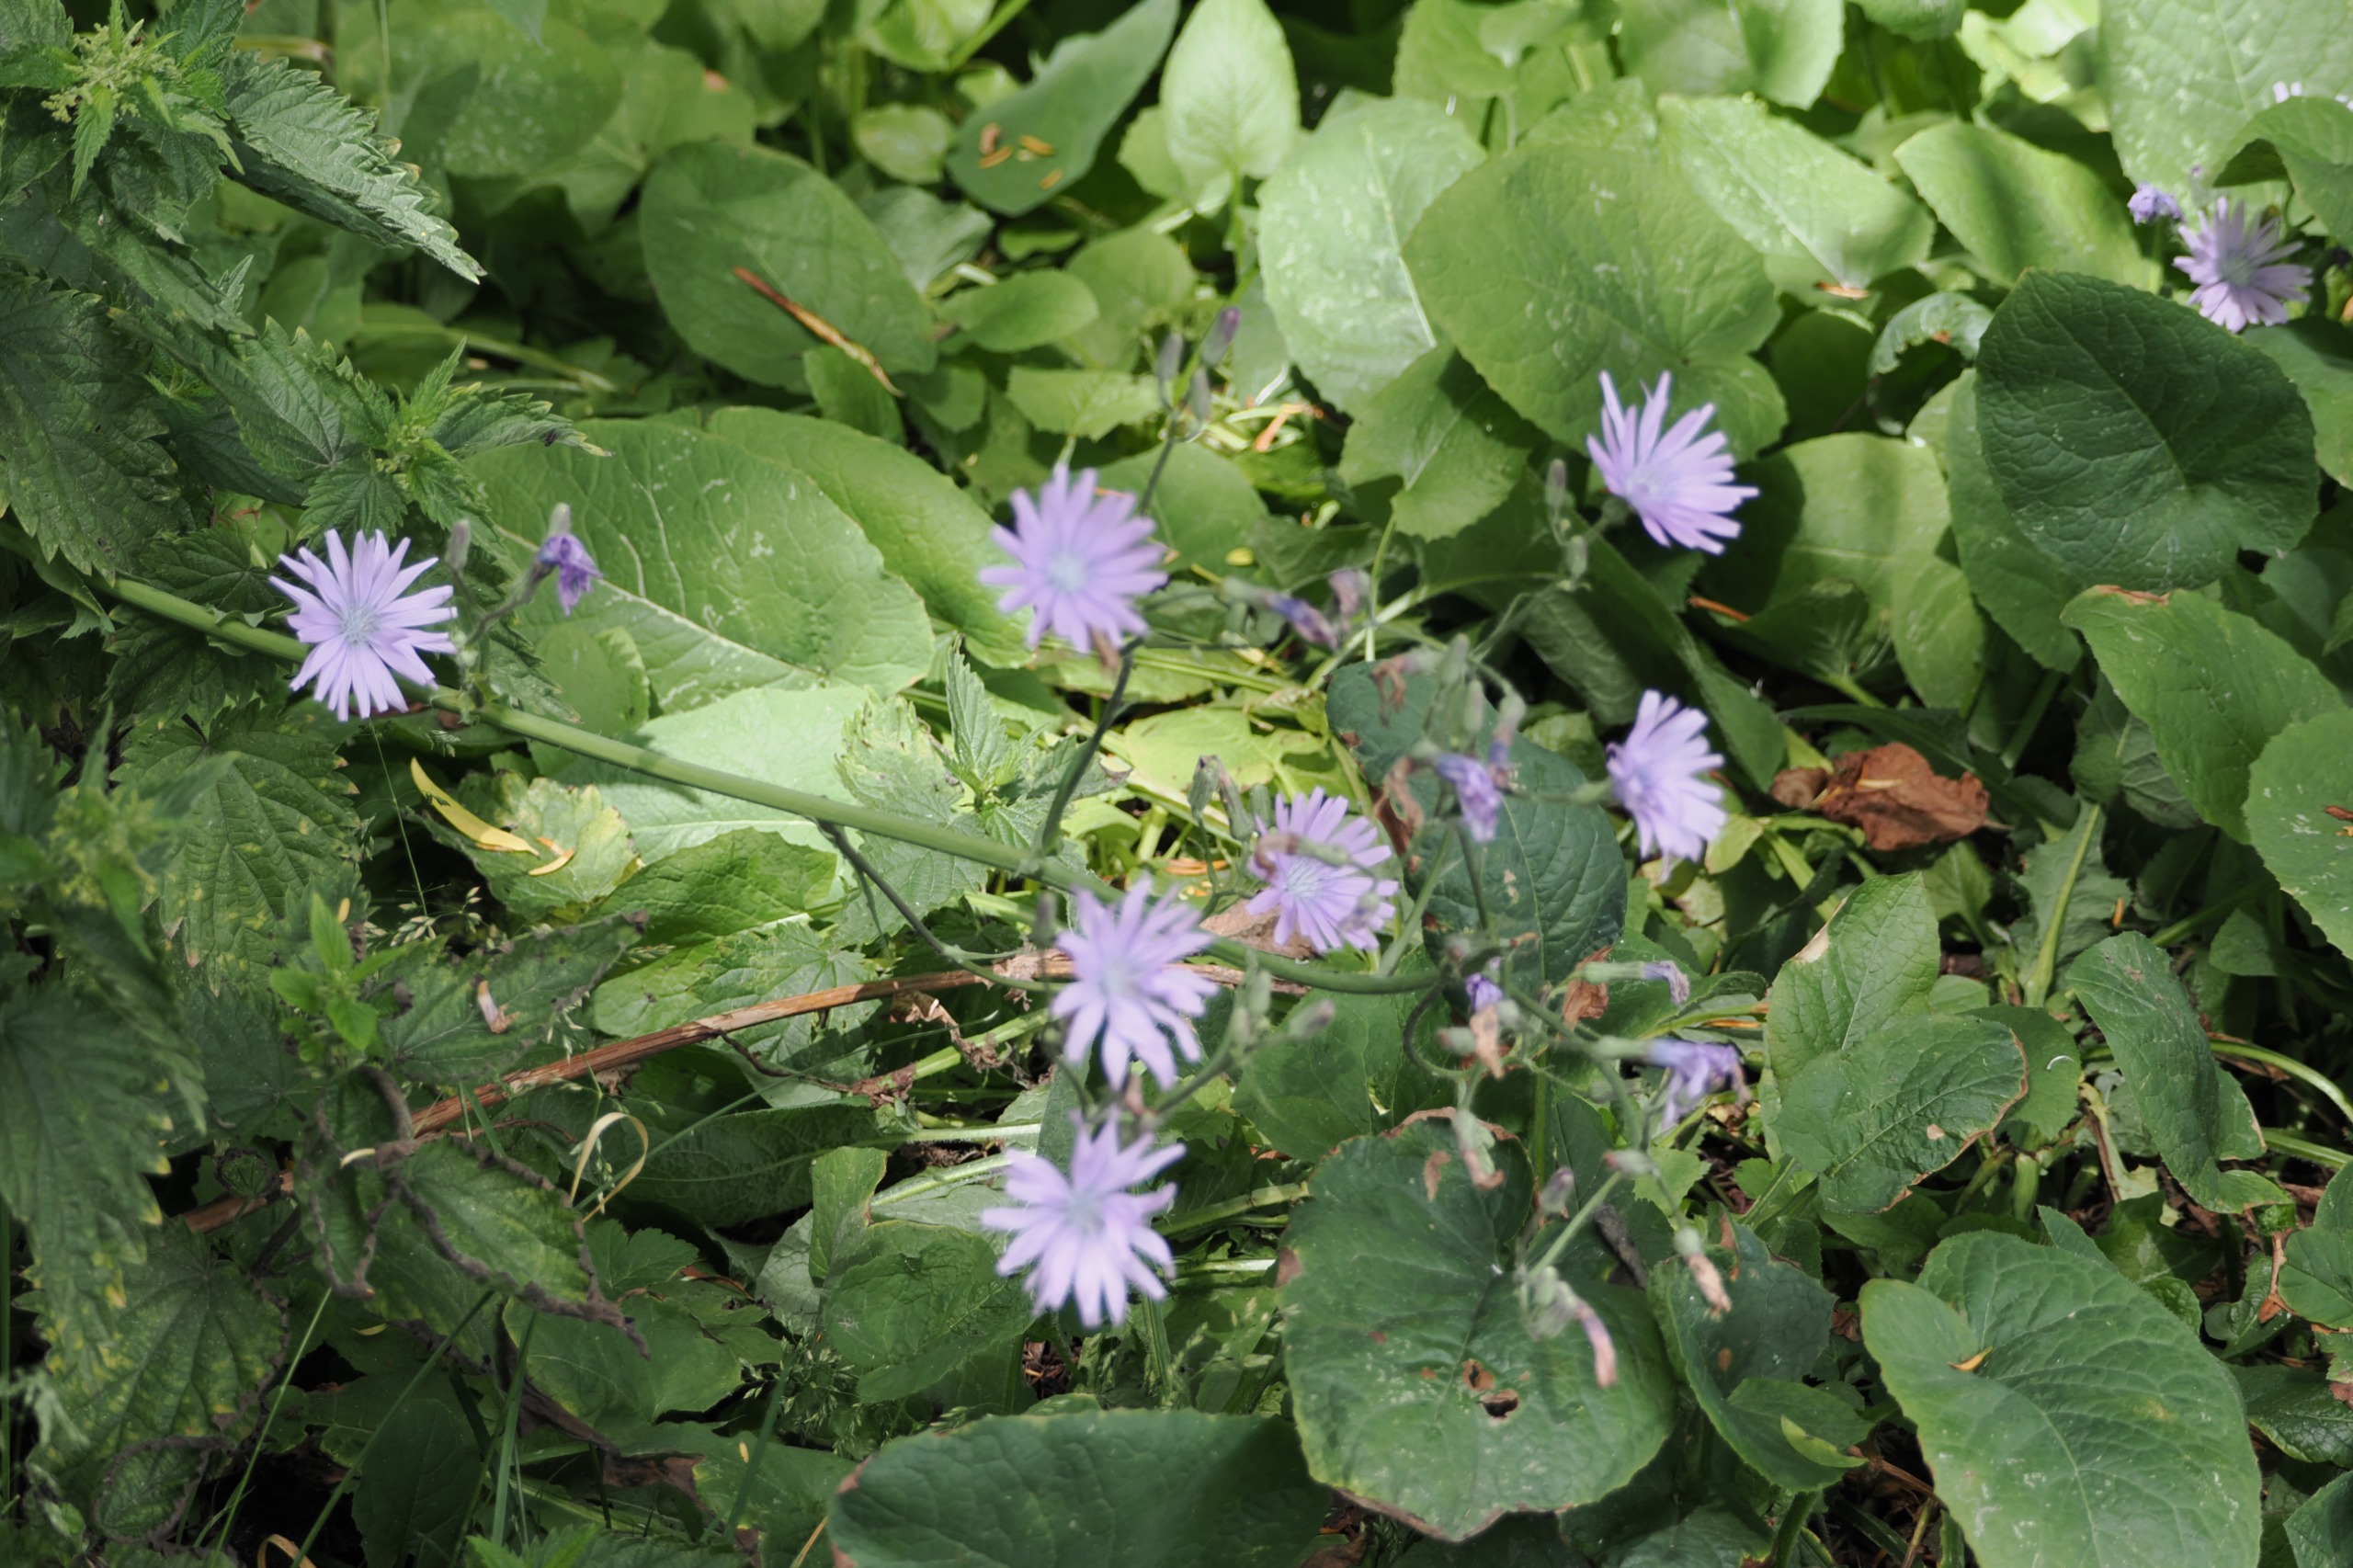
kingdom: Plantae
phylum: Tracheophyta
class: Magnoliopsida
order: Asterales
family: Asteraceae
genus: Cichorium
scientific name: Cichorium intybus
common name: Cikorie
